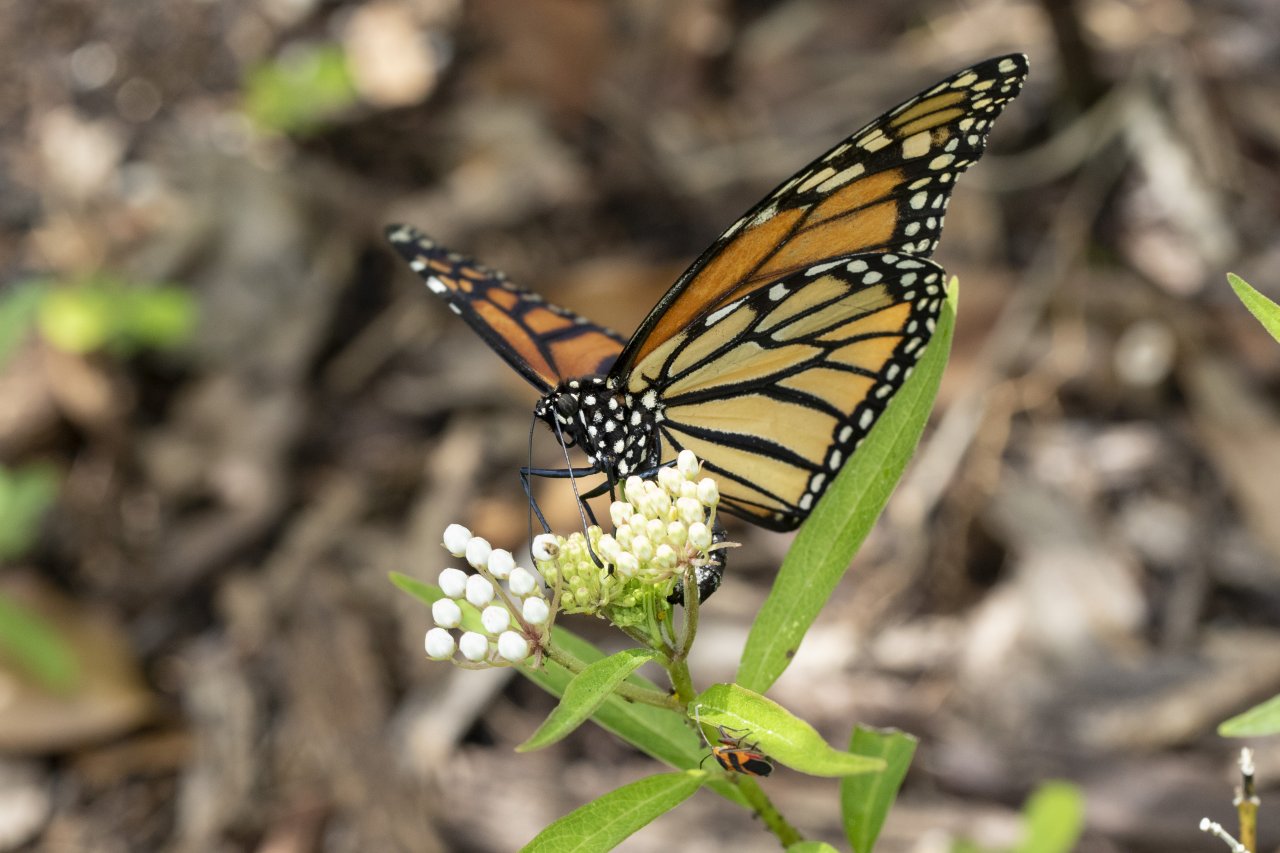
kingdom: Animalia
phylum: Arthropoda
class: Insecta
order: Lepidoptera
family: Nymphalidae
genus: Danaus
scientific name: Danaus plexippus
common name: Monarch
